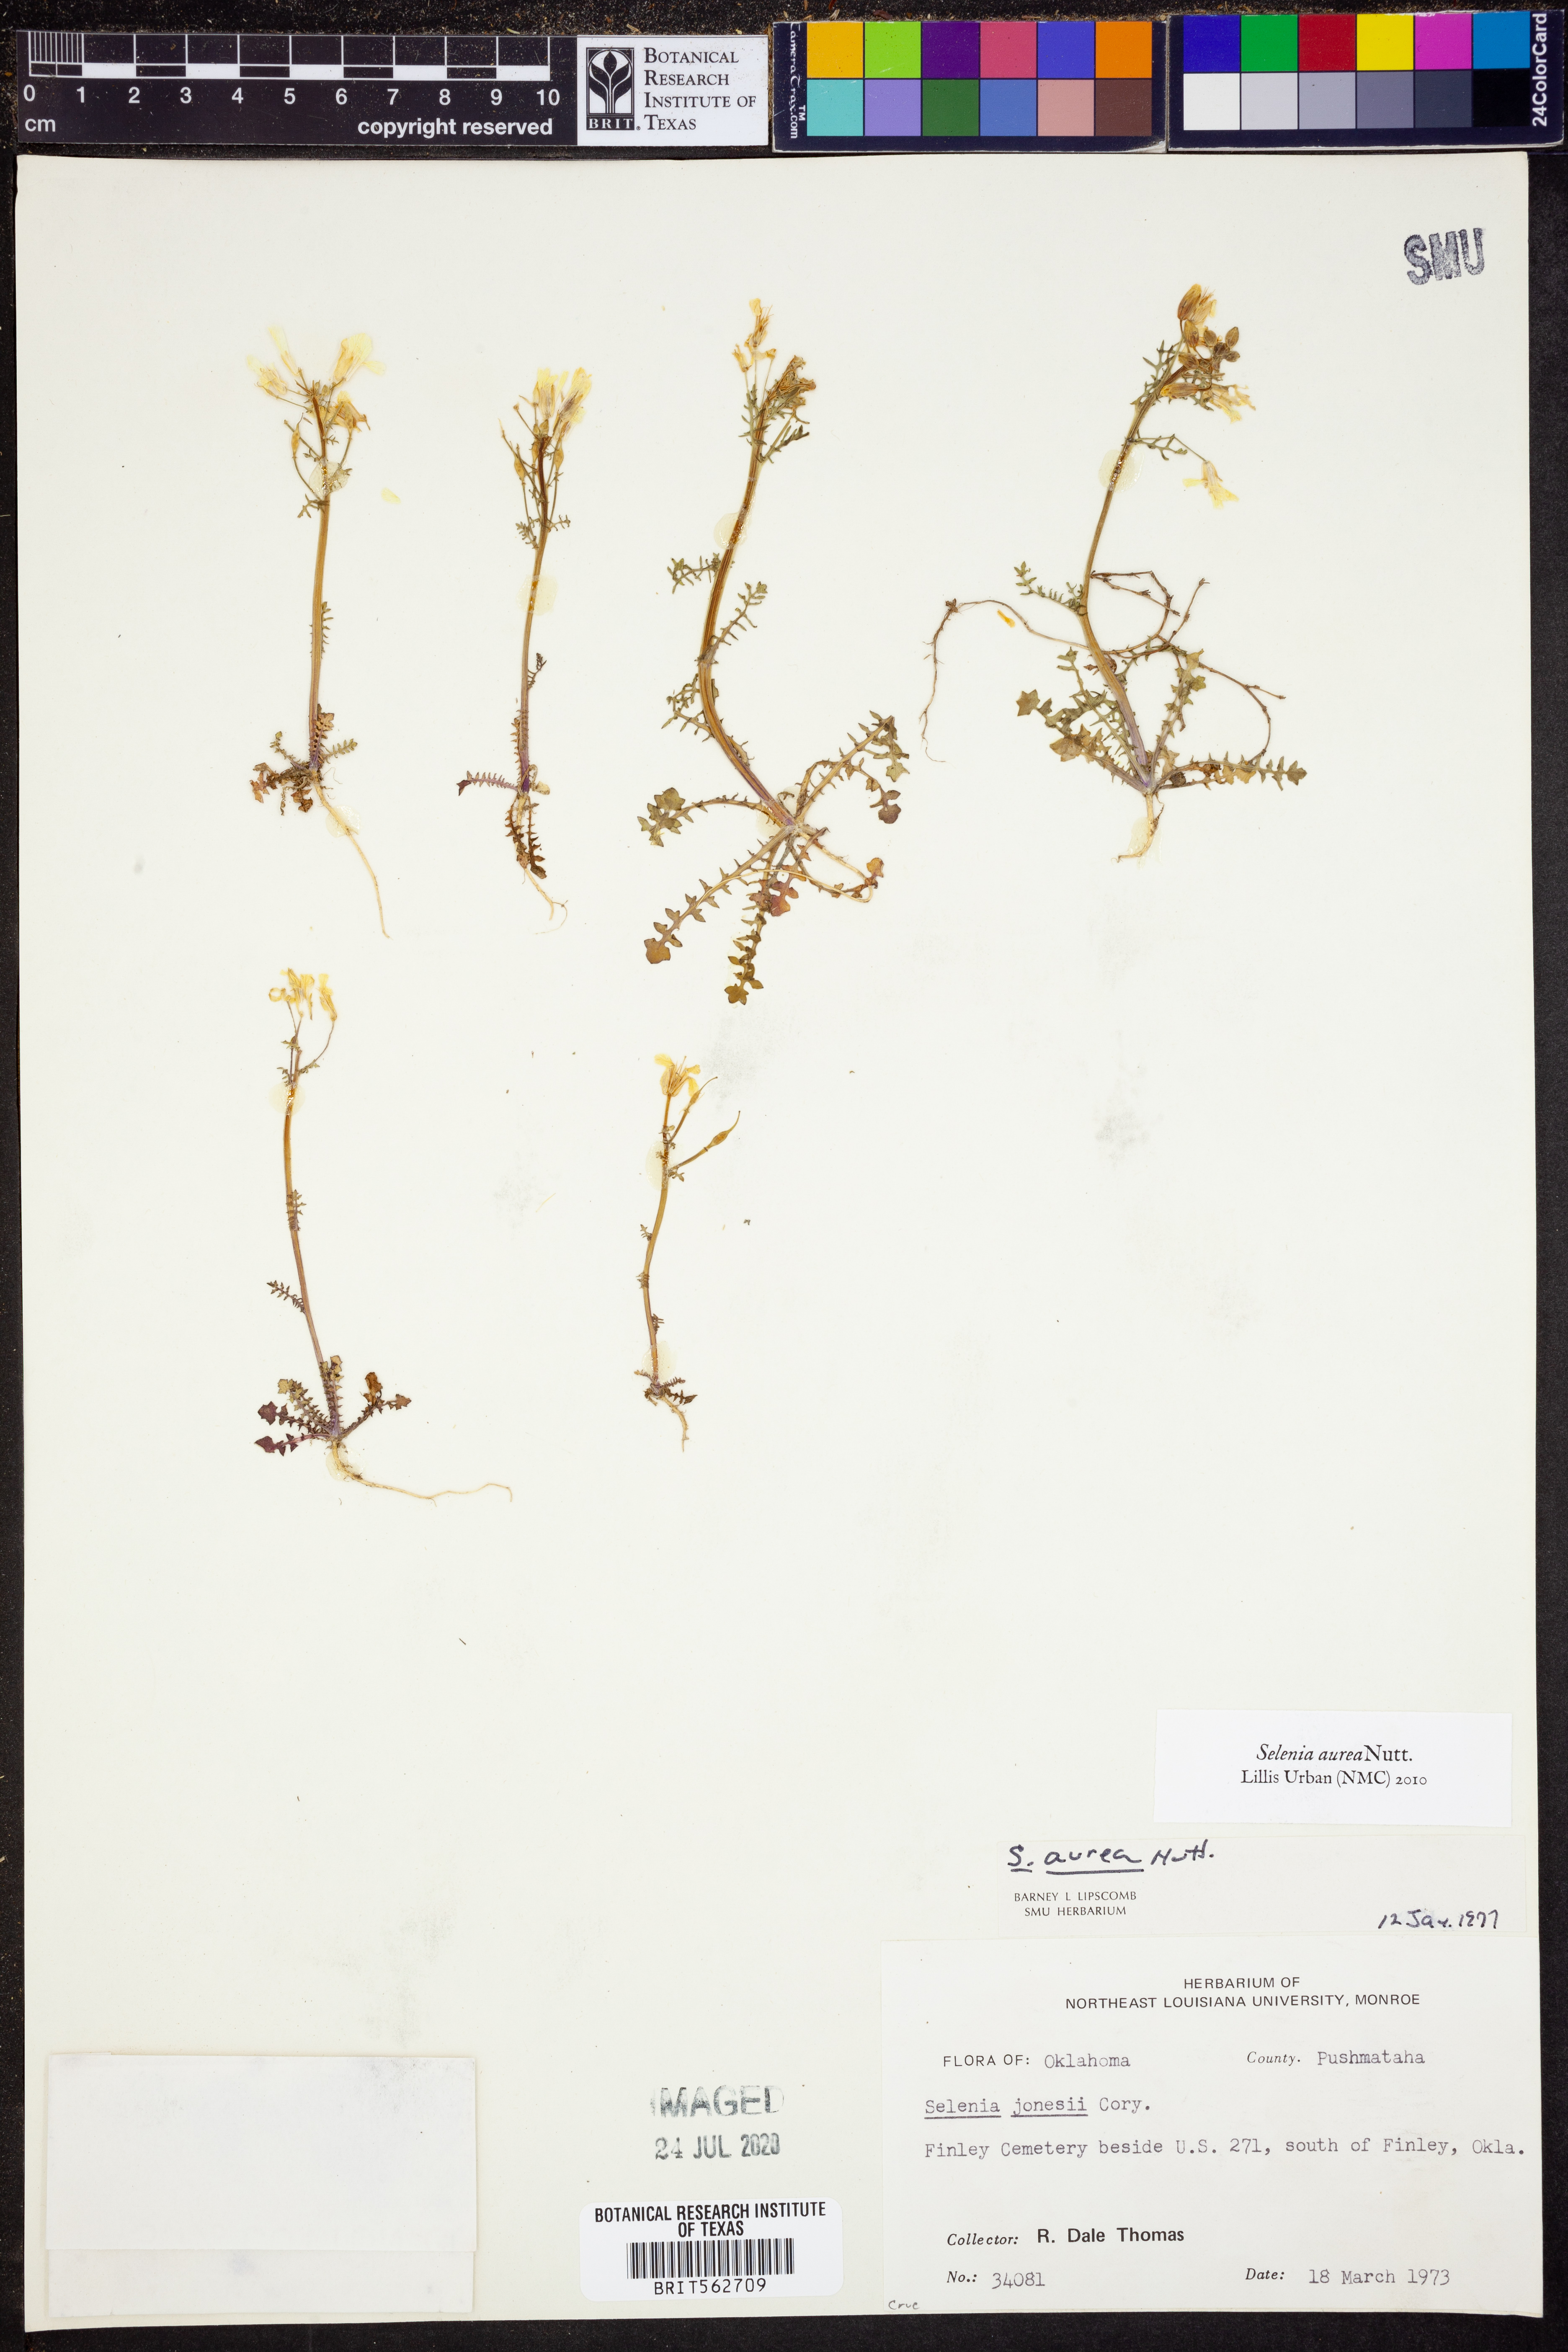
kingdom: Plantae
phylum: Tracheophyta
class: Magnoliopsida
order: Brassicales
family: Brassicaceae
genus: Selenia
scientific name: Selenia aurea
